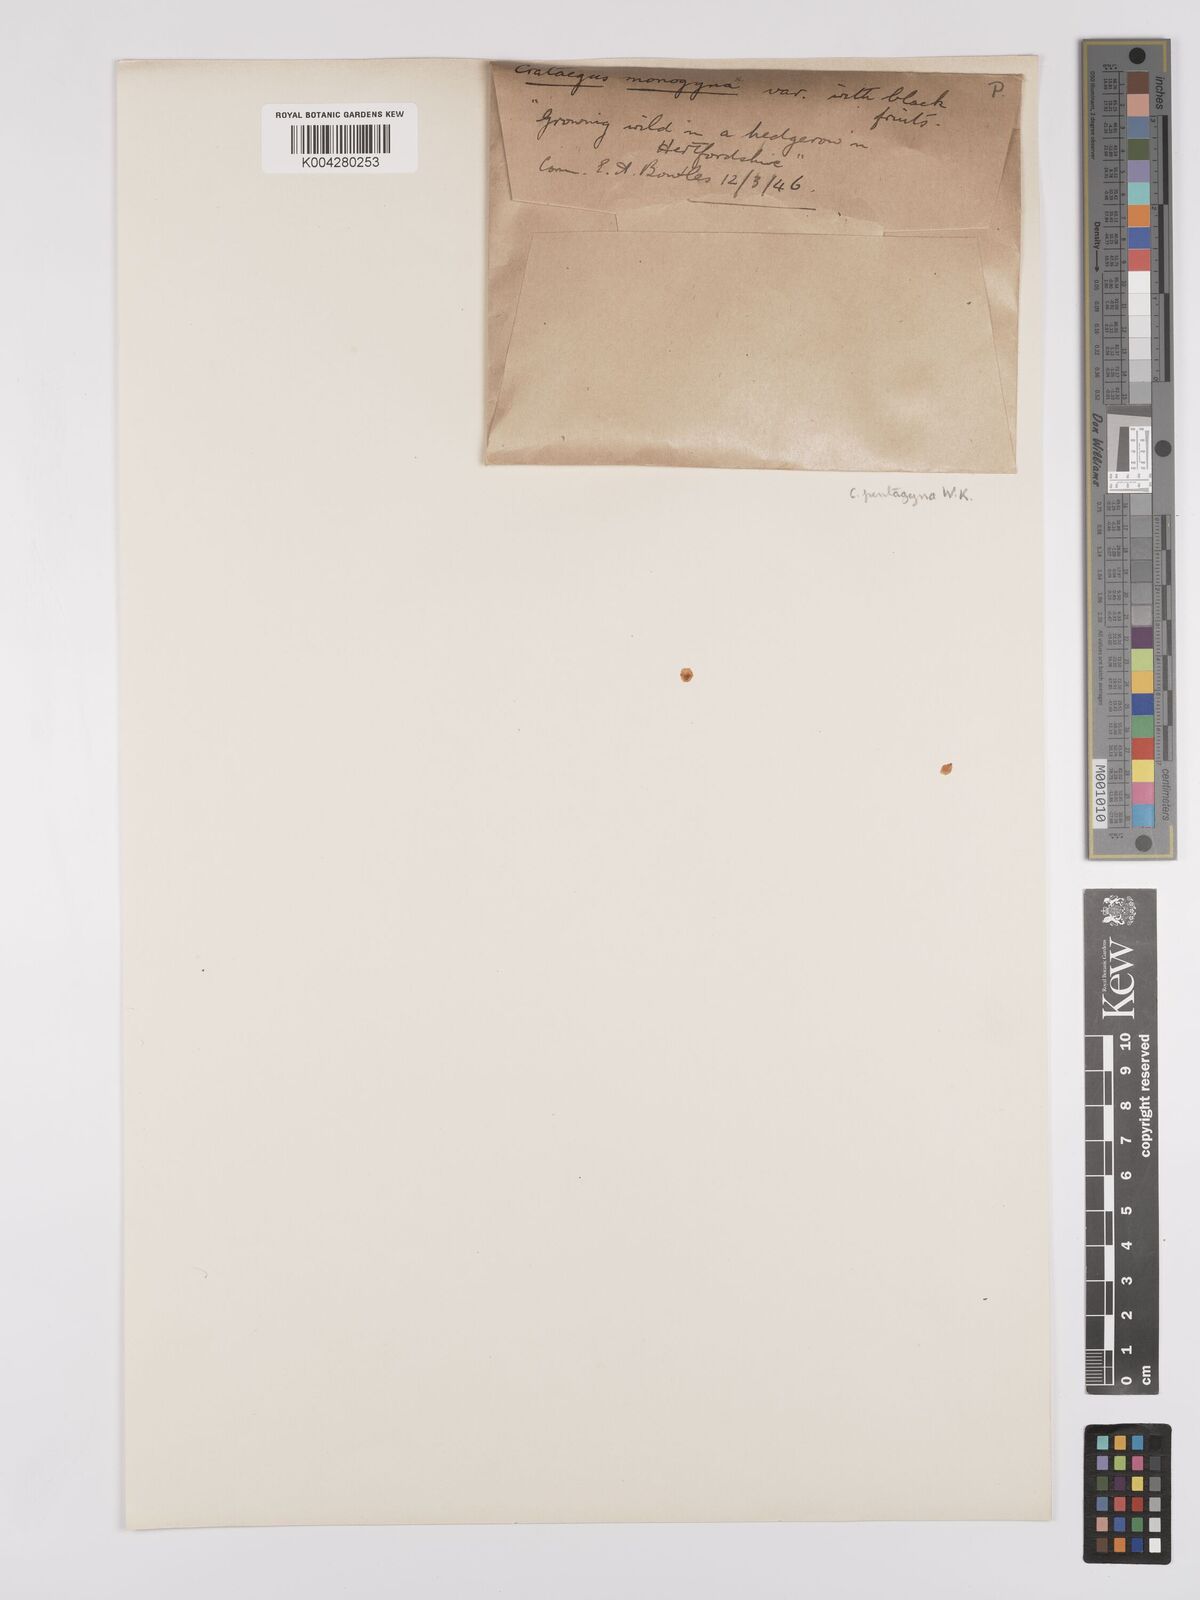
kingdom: Plantae
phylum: Tracheophyta
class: Magnoliopsida
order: Rosales
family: Rosaceae
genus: Crataegus
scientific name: Crataegus pentagyna
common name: Small-flowered black hawthorn
